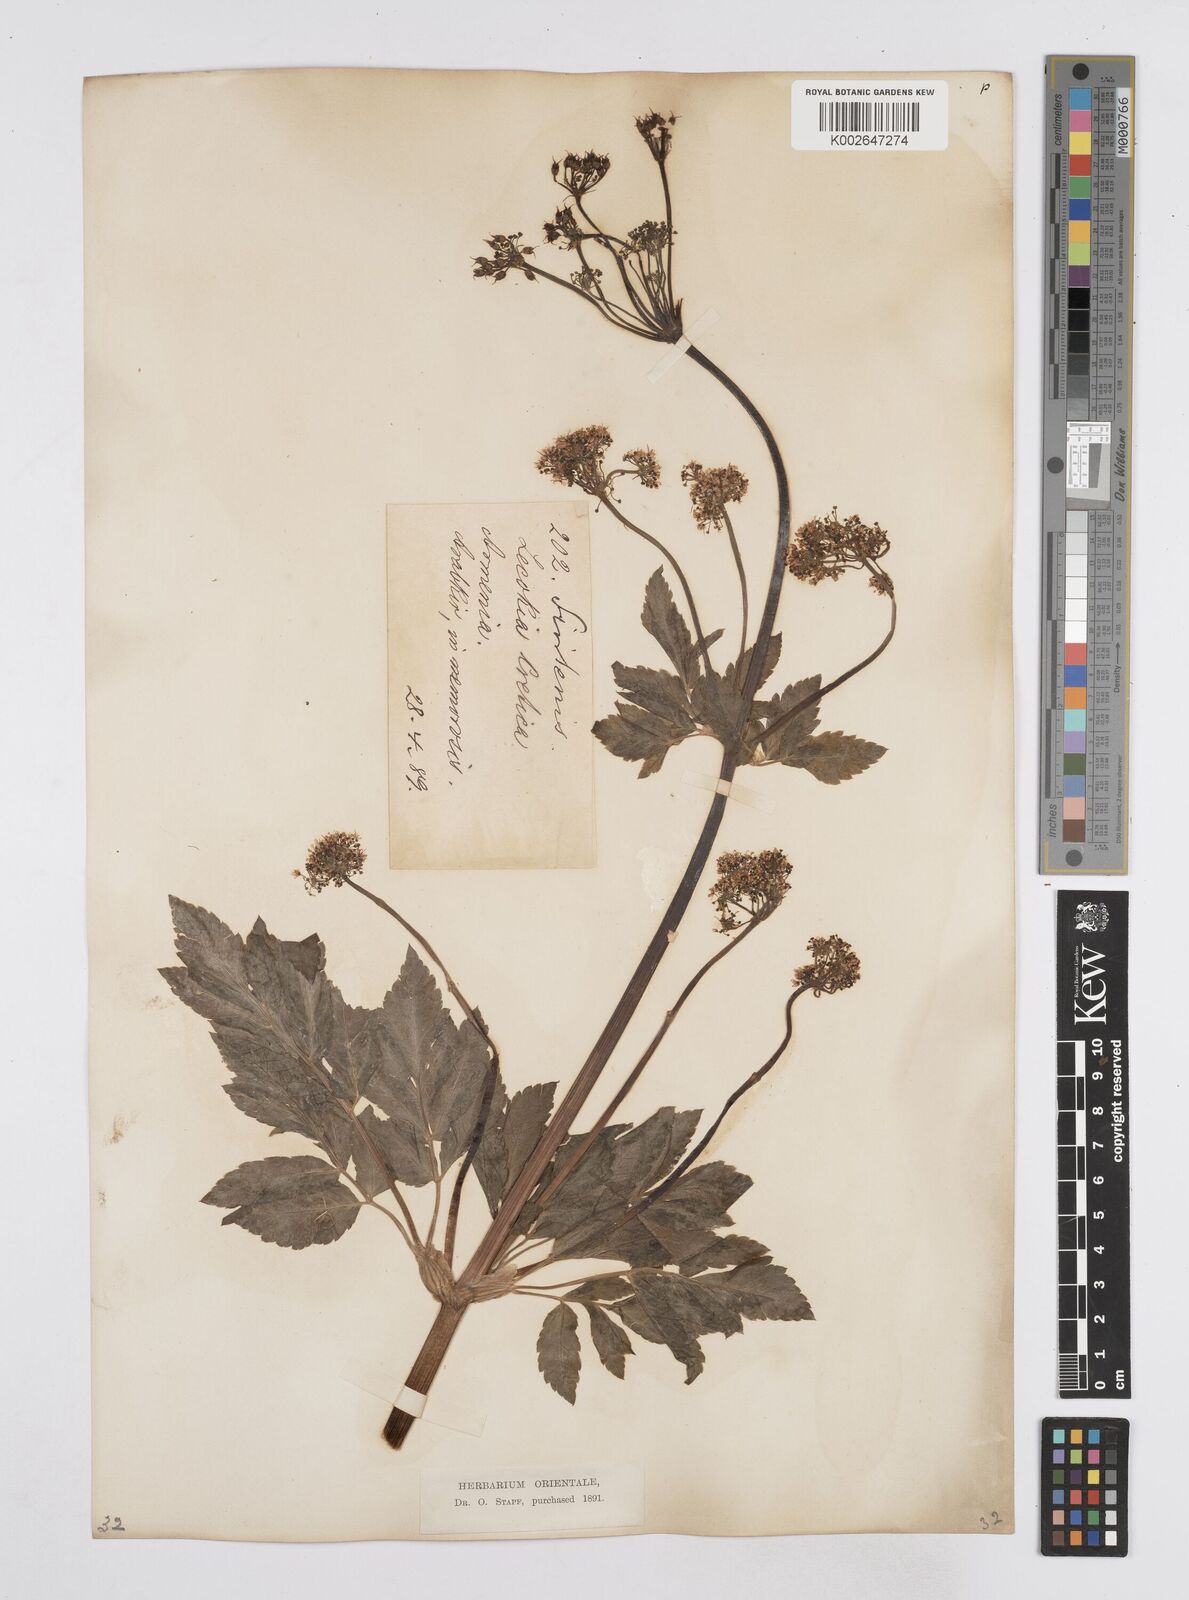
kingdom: Plantae
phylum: Tracheophyta
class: Magnoliopsida
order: Apiales
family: Apiaceae
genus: Lecokia
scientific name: Lecokia cretica
